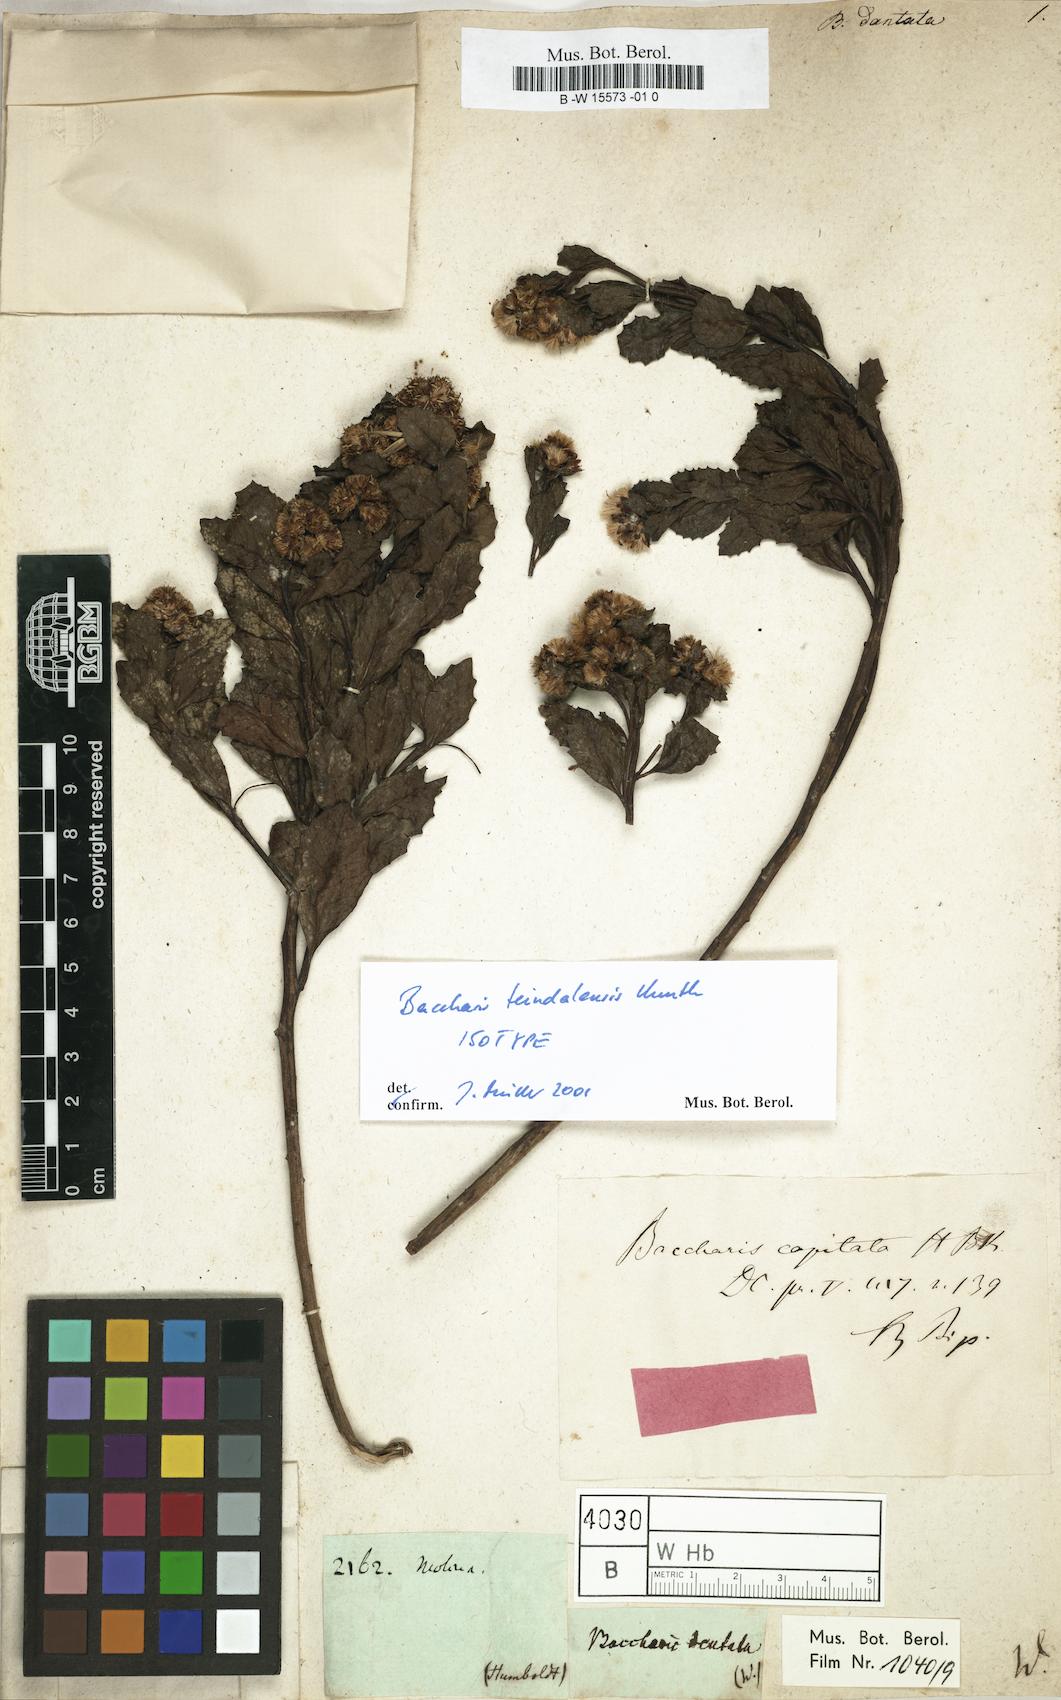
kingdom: Plantae
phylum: Tracheophyta
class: Magnoliopsida
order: Asterales
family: Asteraceae
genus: Baccharis
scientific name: Baccharis dentata
